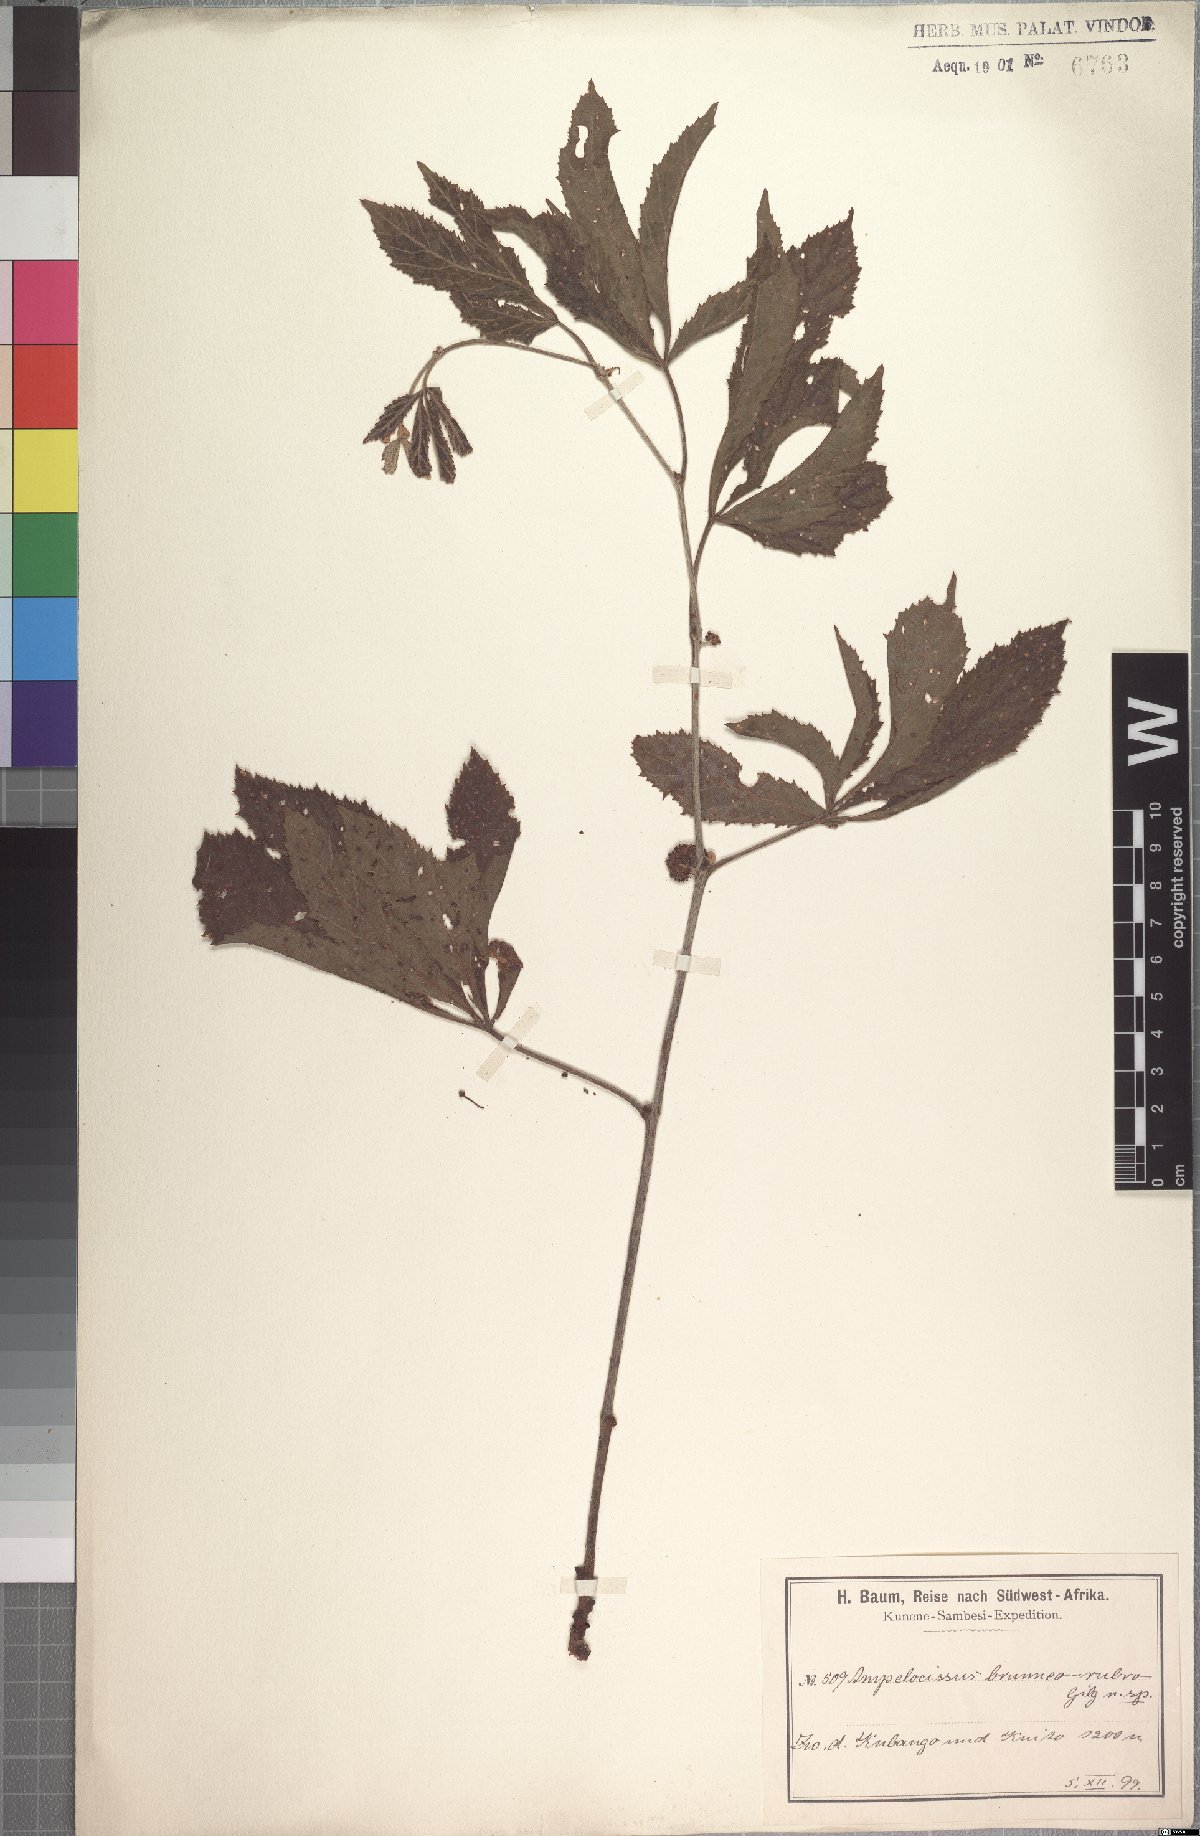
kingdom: Plantae
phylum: Tracheophyta
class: Magnoliopsida
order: Vitales
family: Vitaceae
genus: Ampelocissus
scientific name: Ampelocissus obtusata
